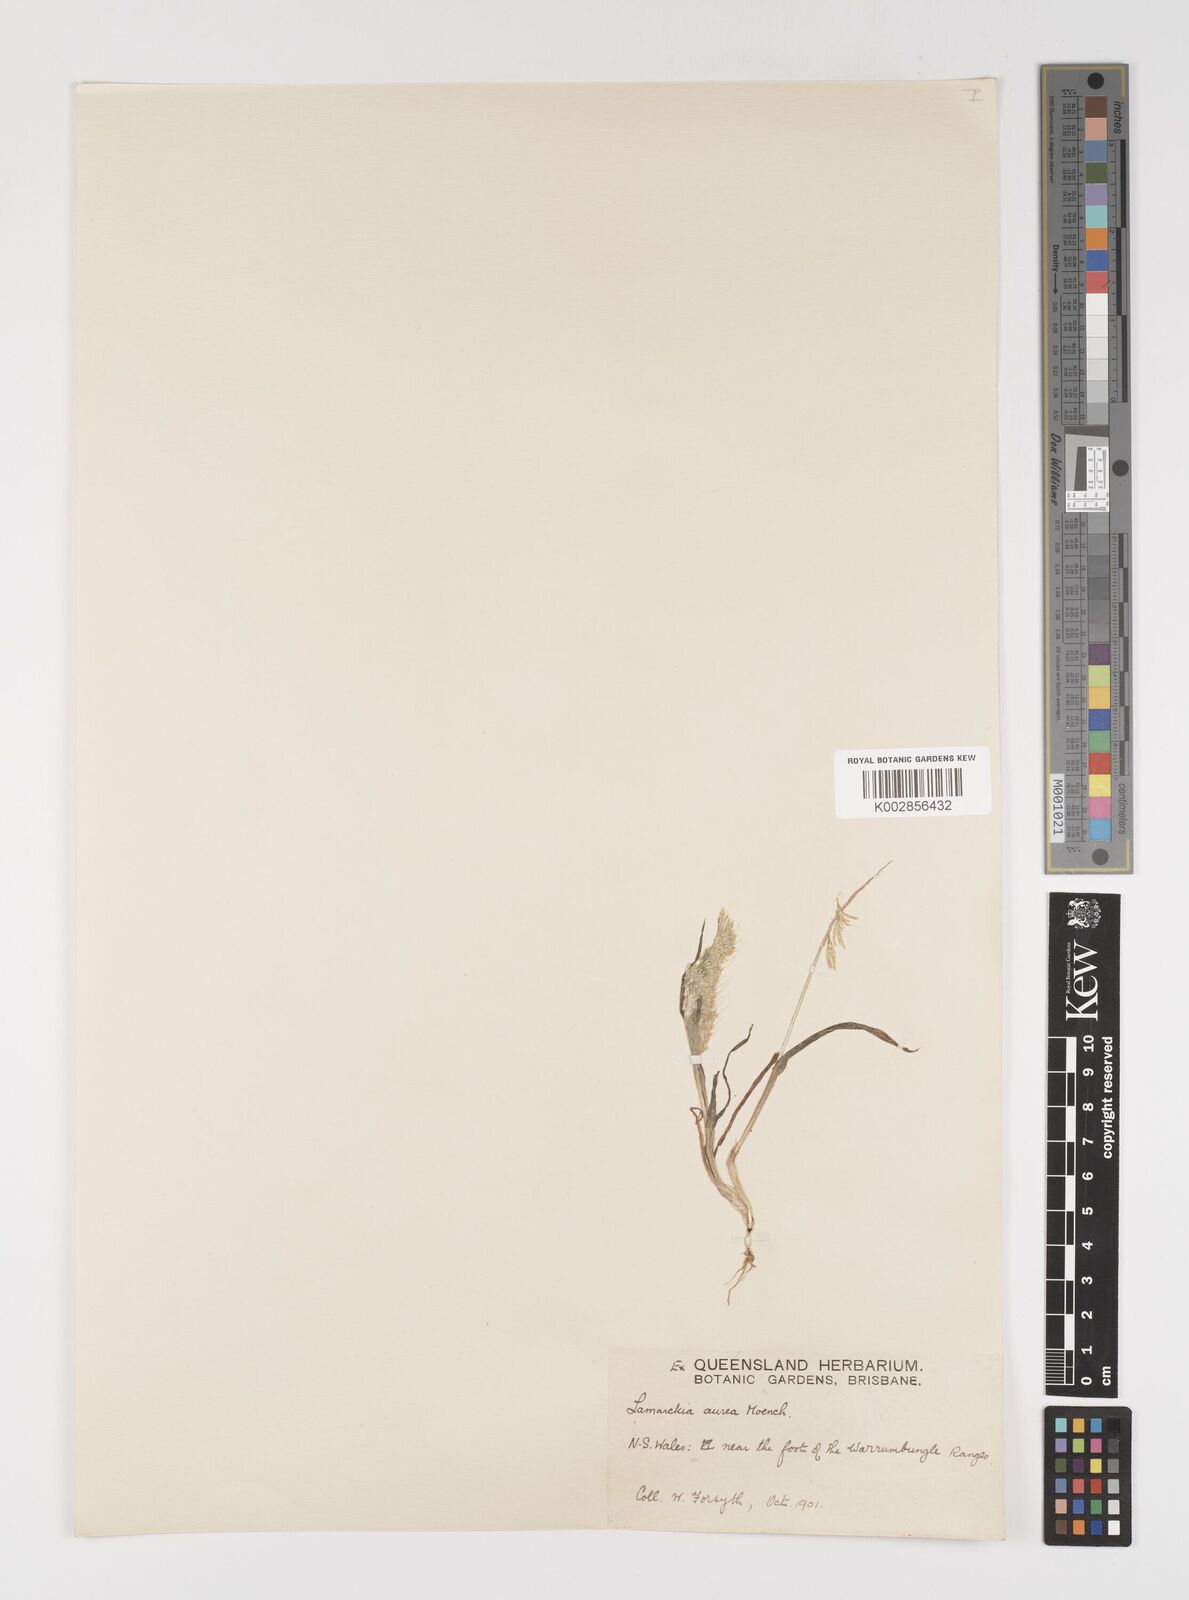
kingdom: Plantae
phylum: Tracheophyta
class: Liliopsida
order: Poales
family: Poaceae
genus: Lamarckia
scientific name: Lamarckia aurea
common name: Golden dog's-tail
